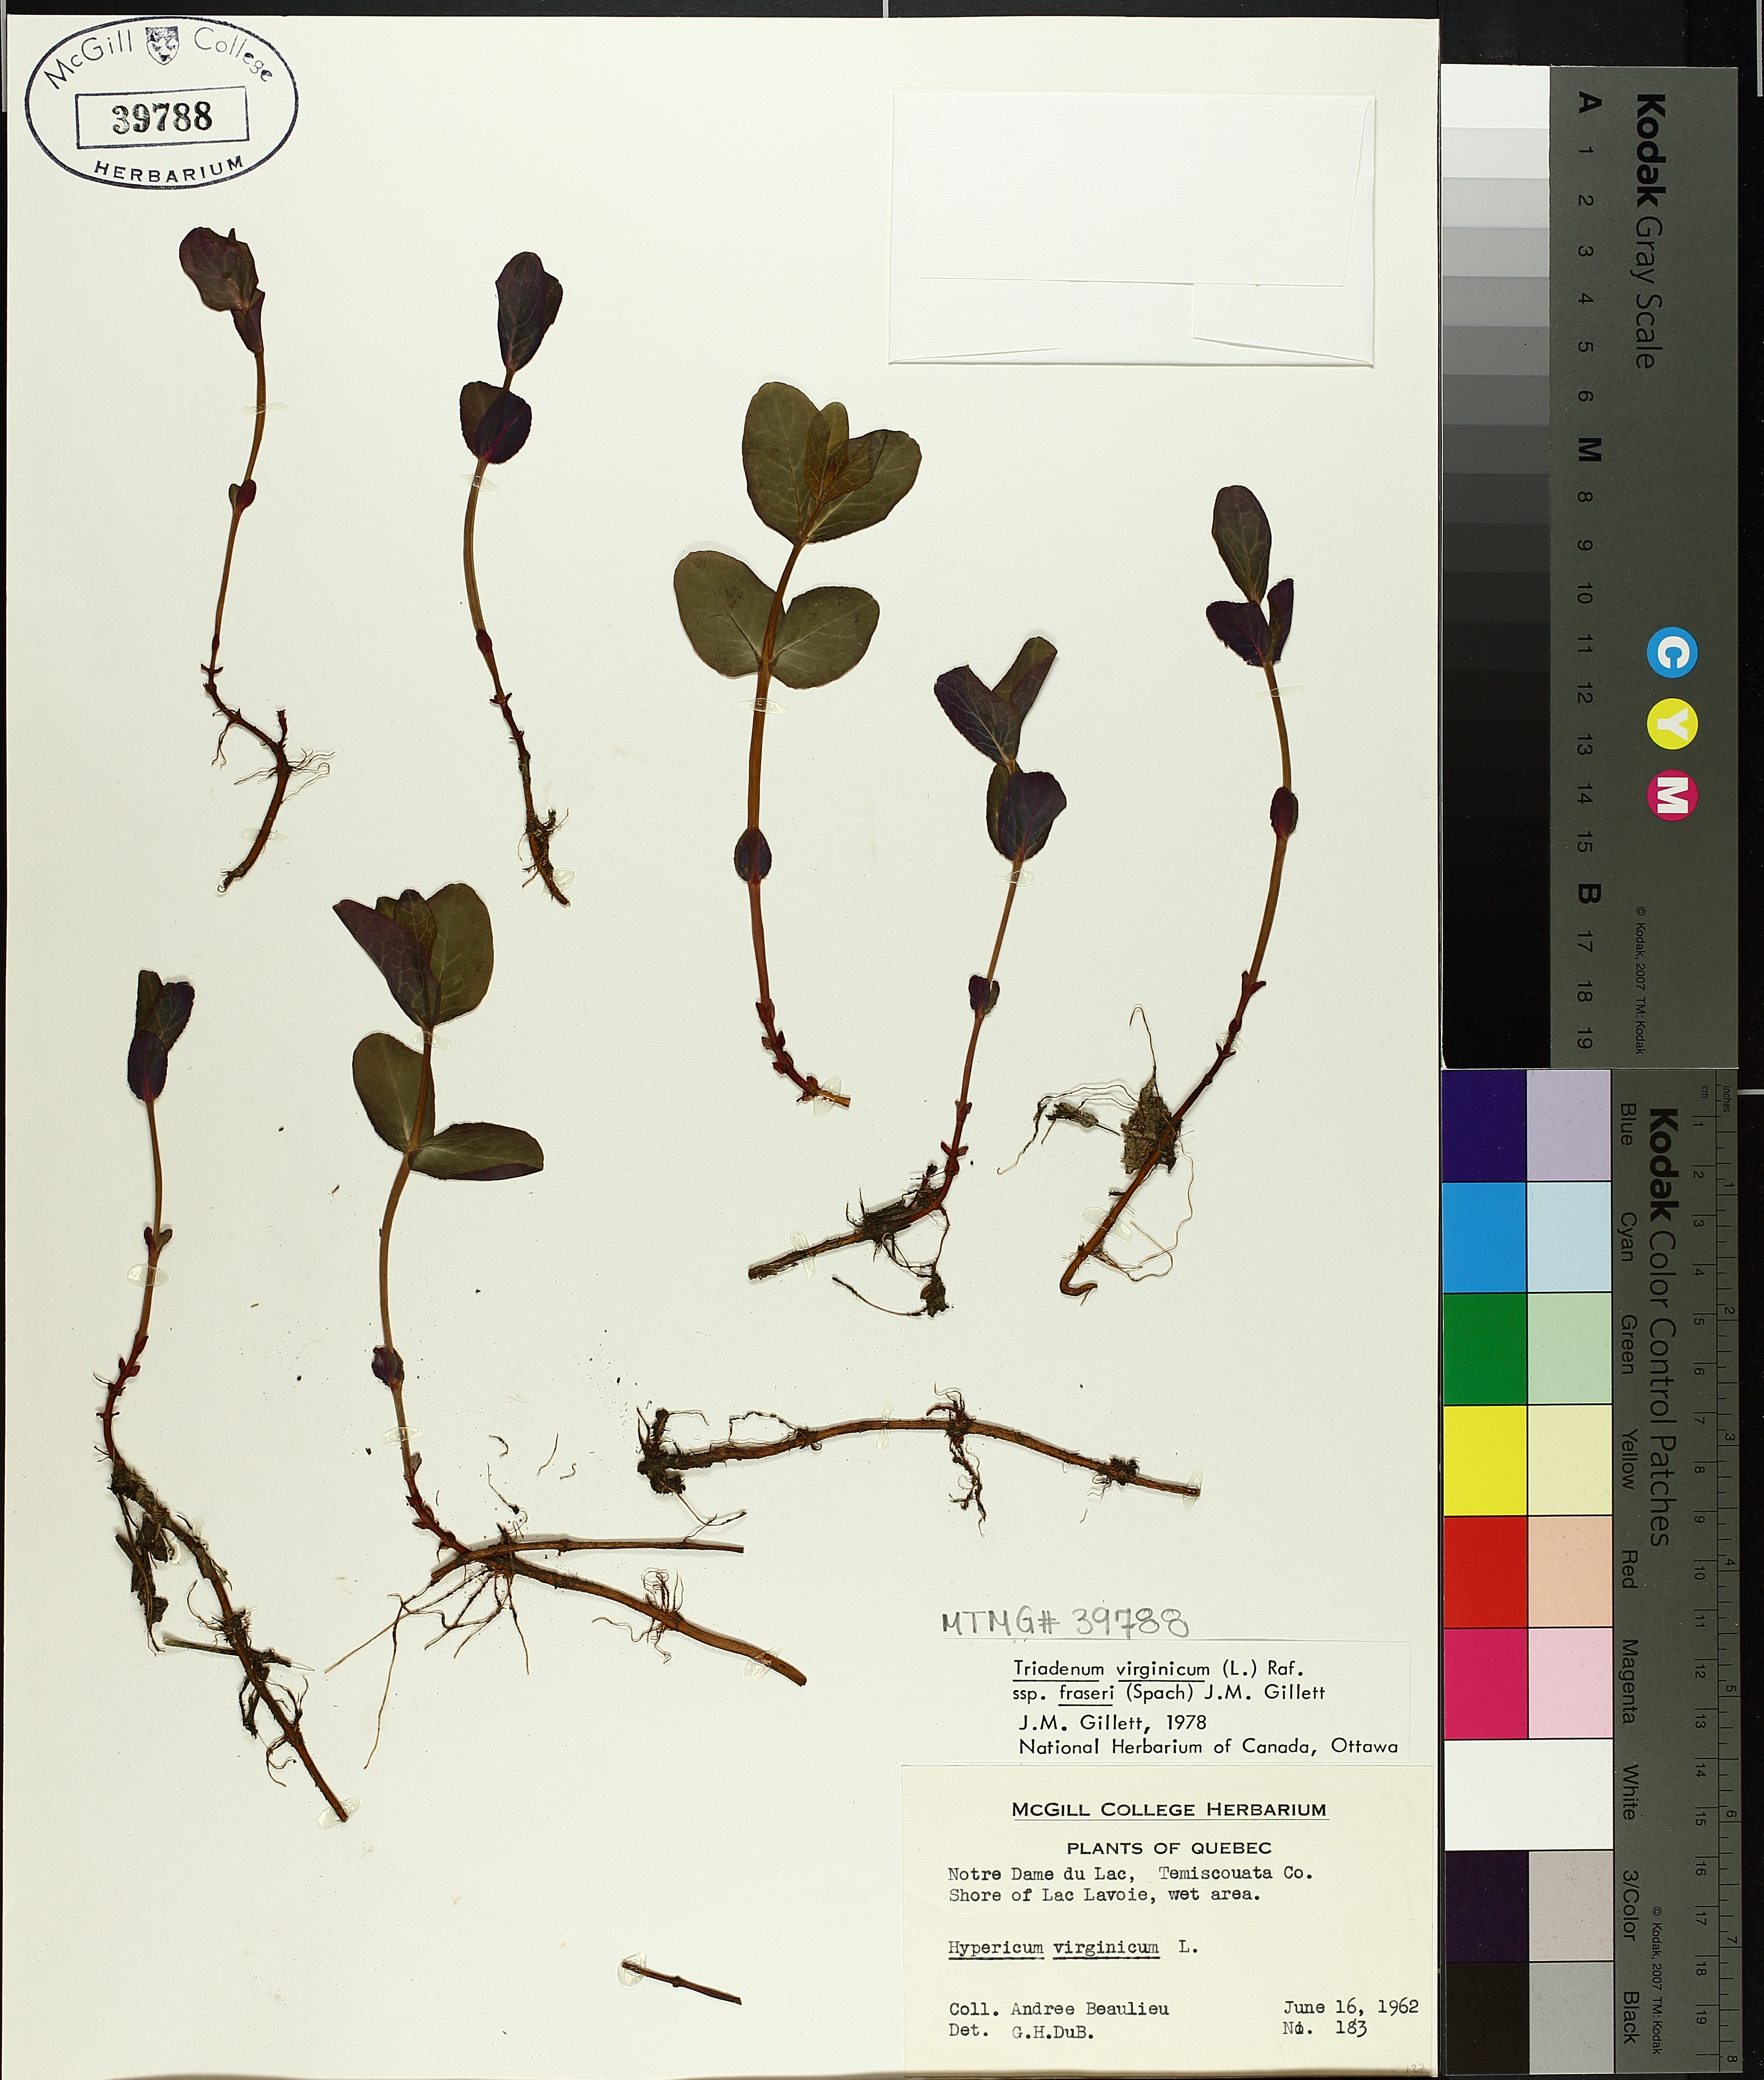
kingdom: Plantae
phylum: Tracheophyta
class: Magnoliopsida
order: Malpighiales
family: Hypericaceae
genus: Triadenum
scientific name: Triadenum fraseri
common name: Fraser's marsh st. johnswort
